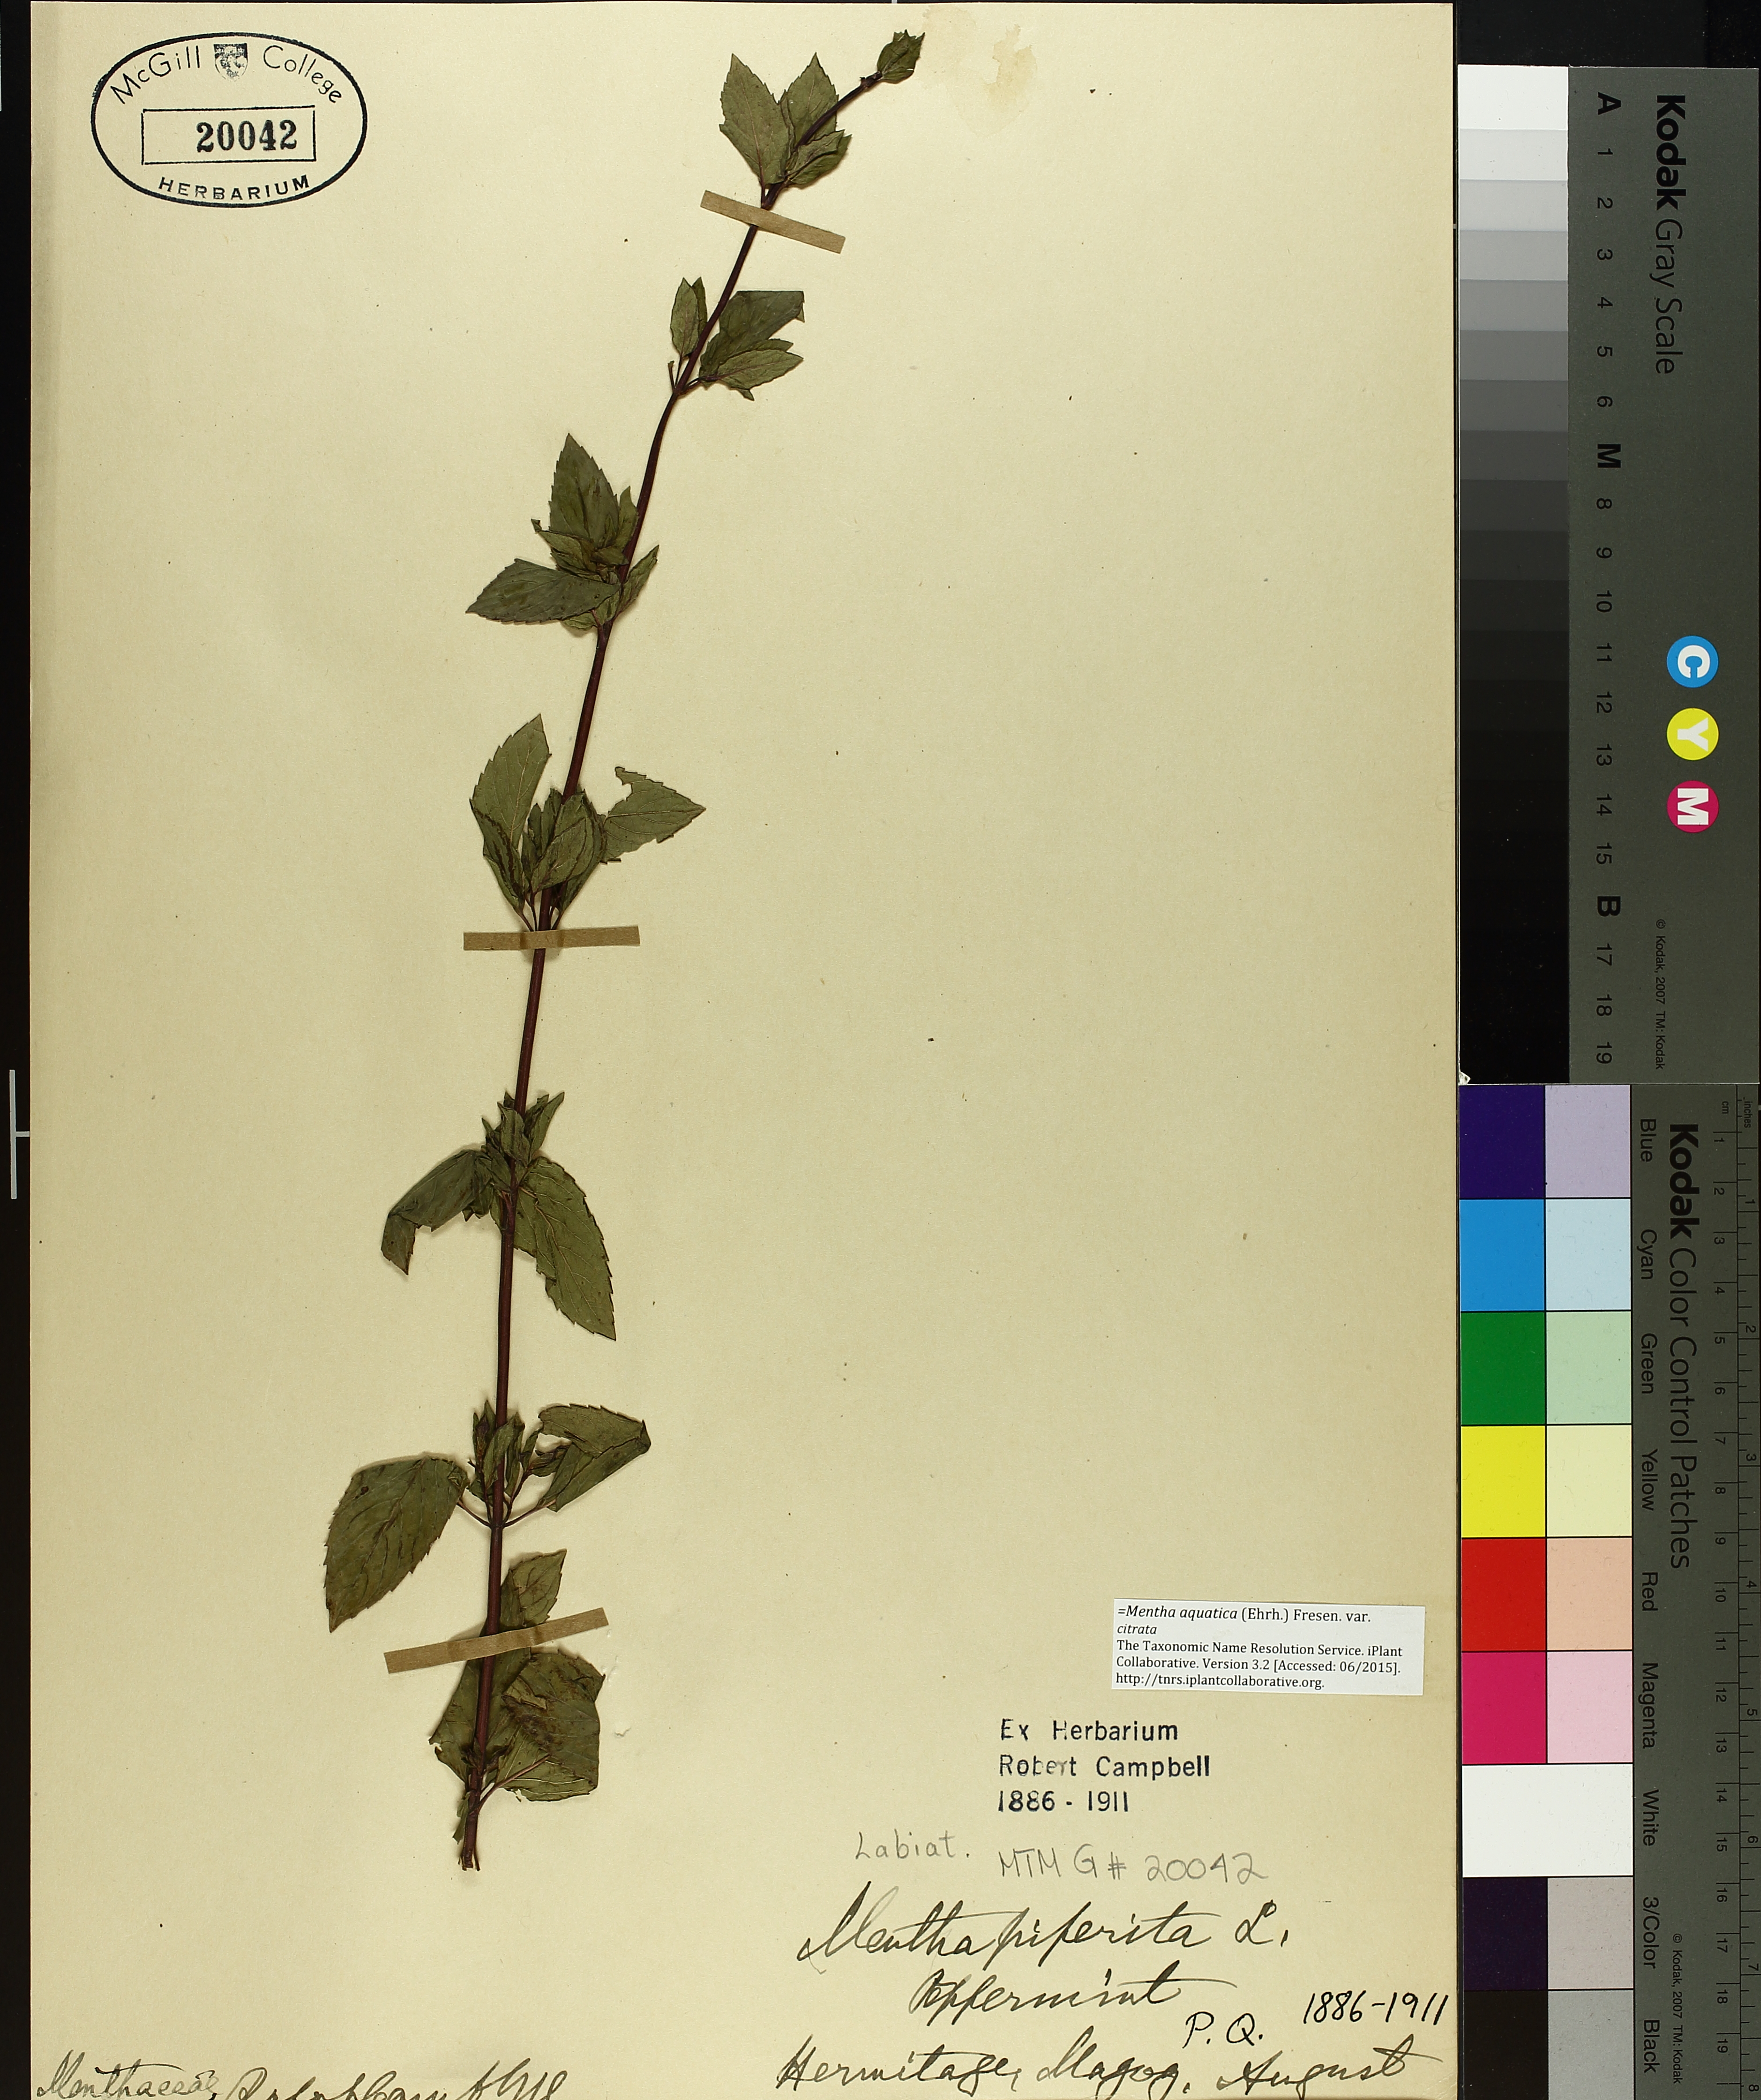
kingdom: Plantae
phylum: Tracheophyta
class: Magnoliopsida
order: Lamiales
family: Lamiaceae
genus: Mentha
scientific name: Mentha piperita
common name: Peppermint
